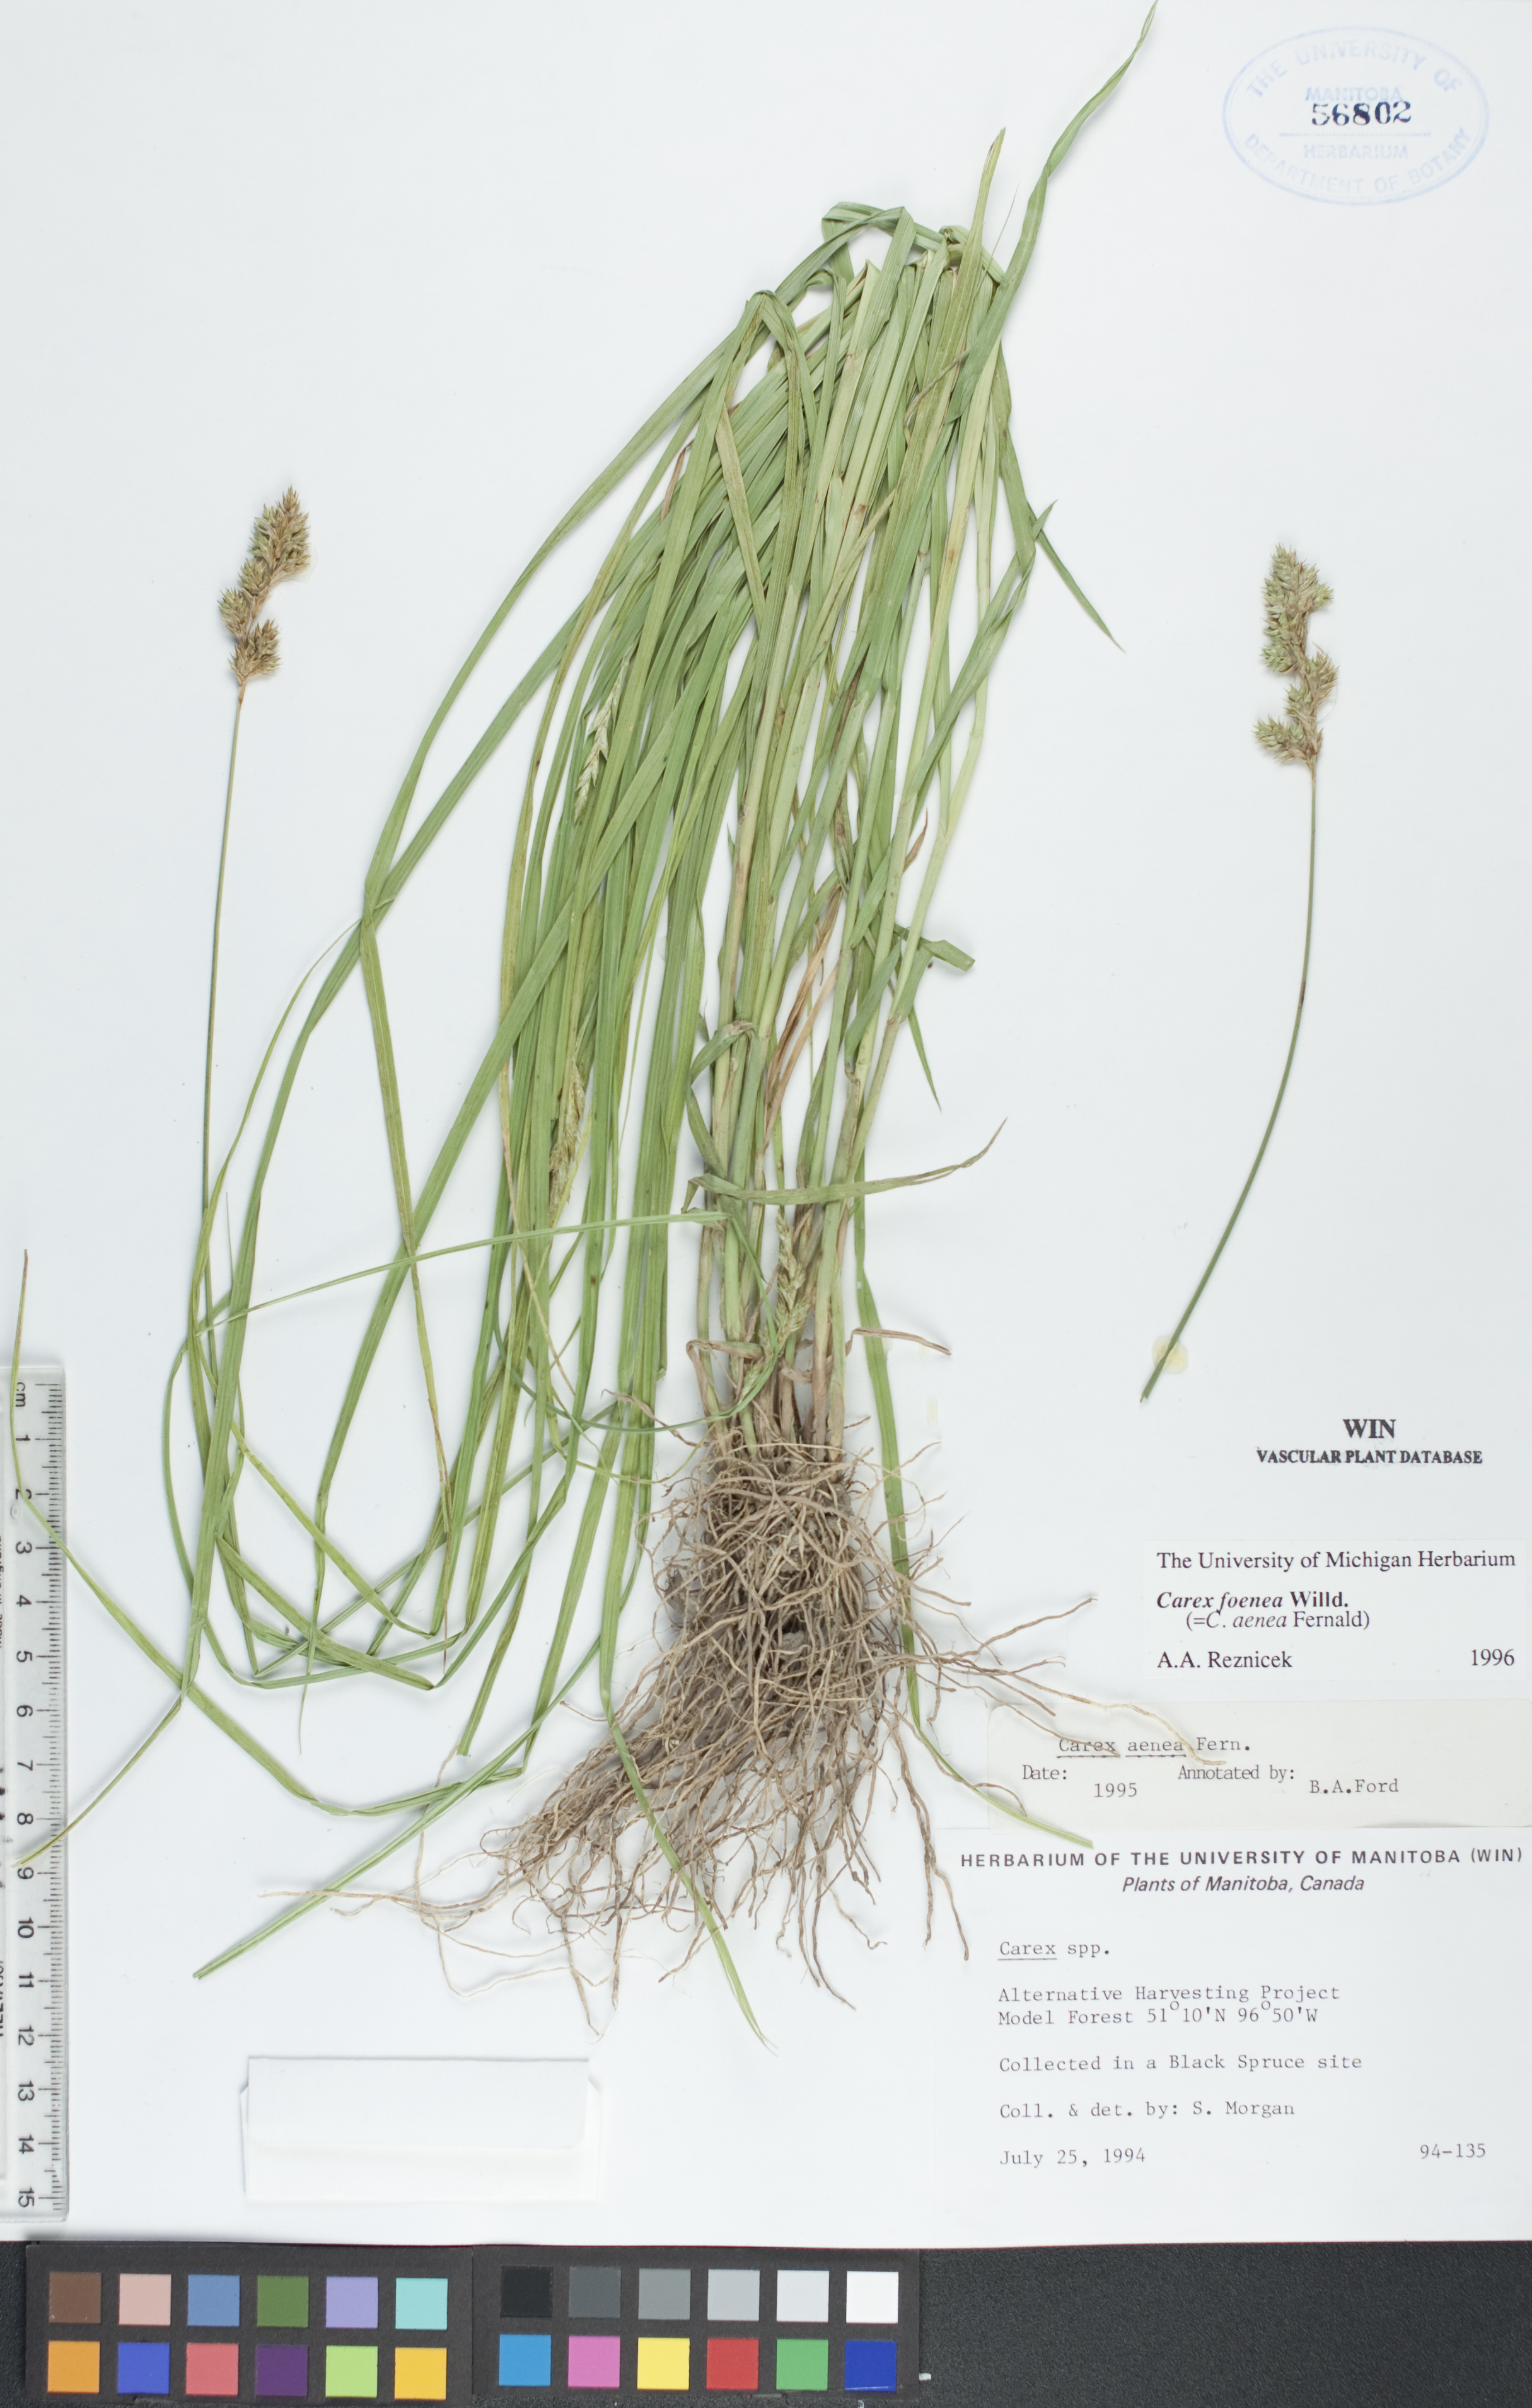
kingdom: Plantae
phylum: Tracheophyta
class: Liliopsida
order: Poales
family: Cyperaceae
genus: Carex
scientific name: Carex foenea
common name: Bronze sedge
